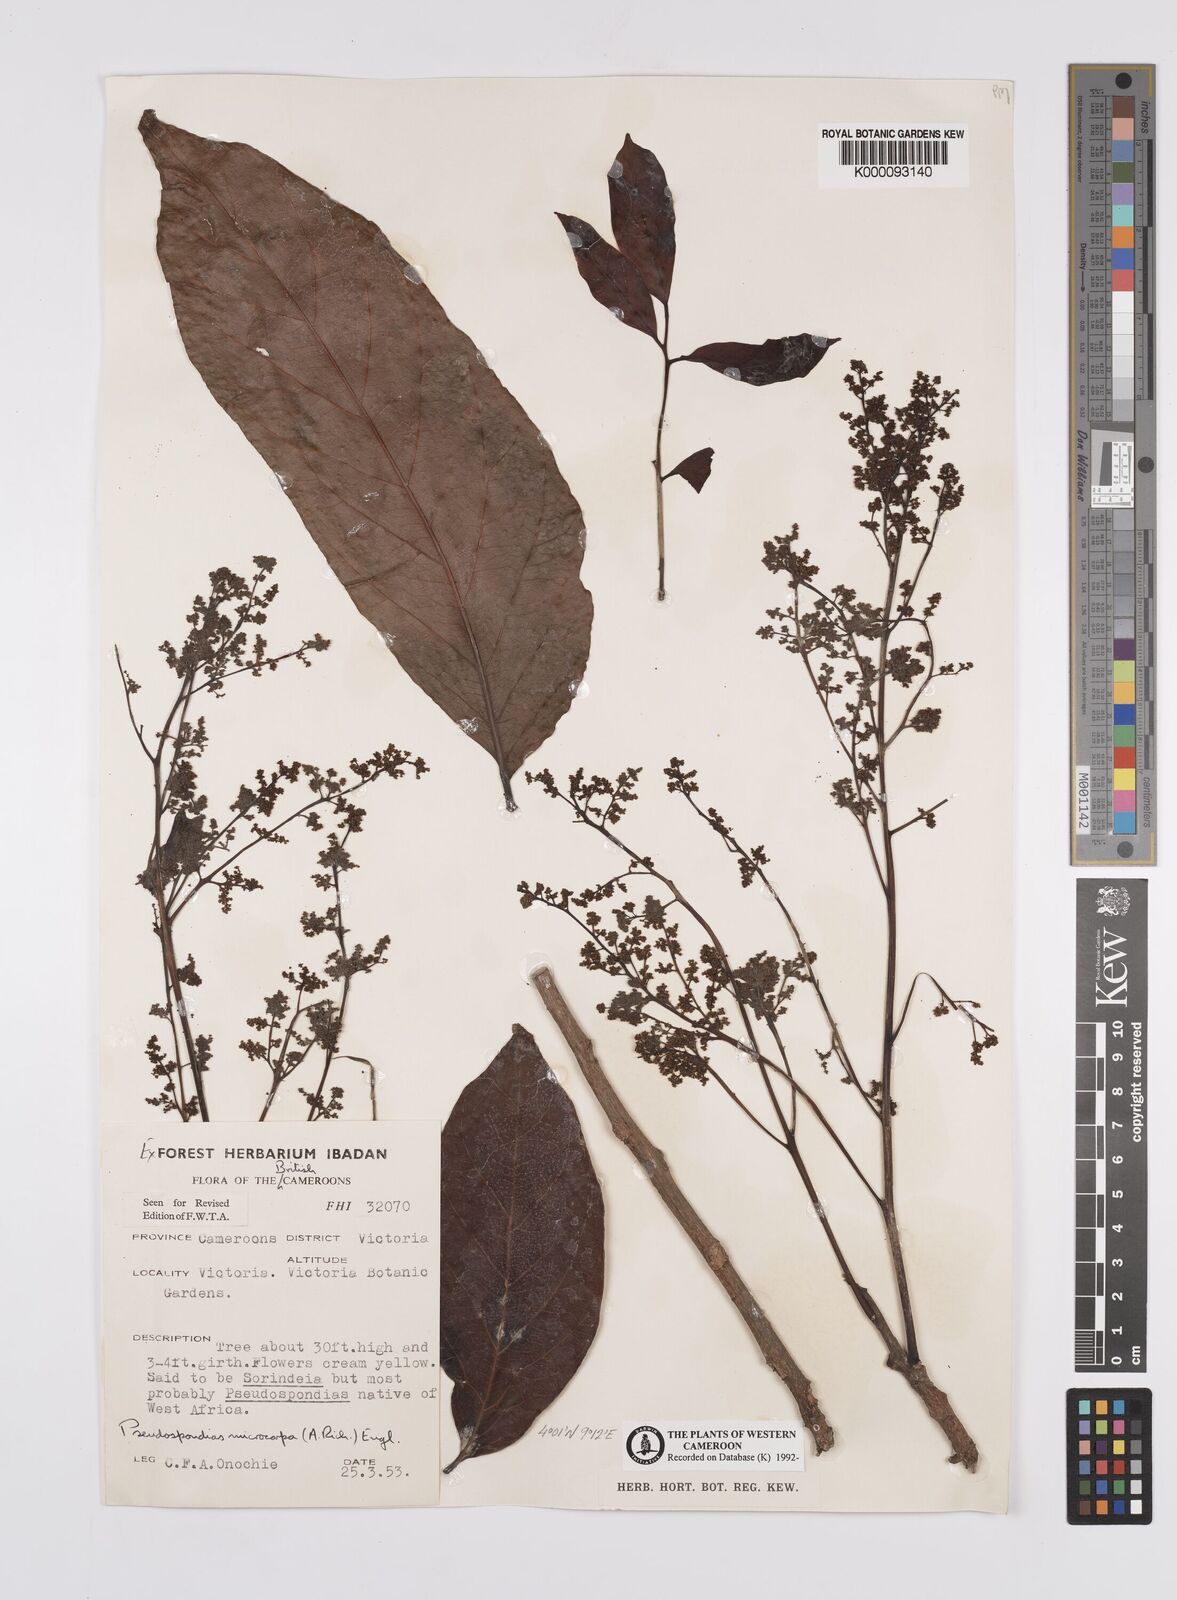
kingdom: Plantae
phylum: Tracheophyta
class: Magnoliopsida
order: Sapindales
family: Anacardiaceae
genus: Pseudospondias
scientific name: Pseudospondias microcarpa
